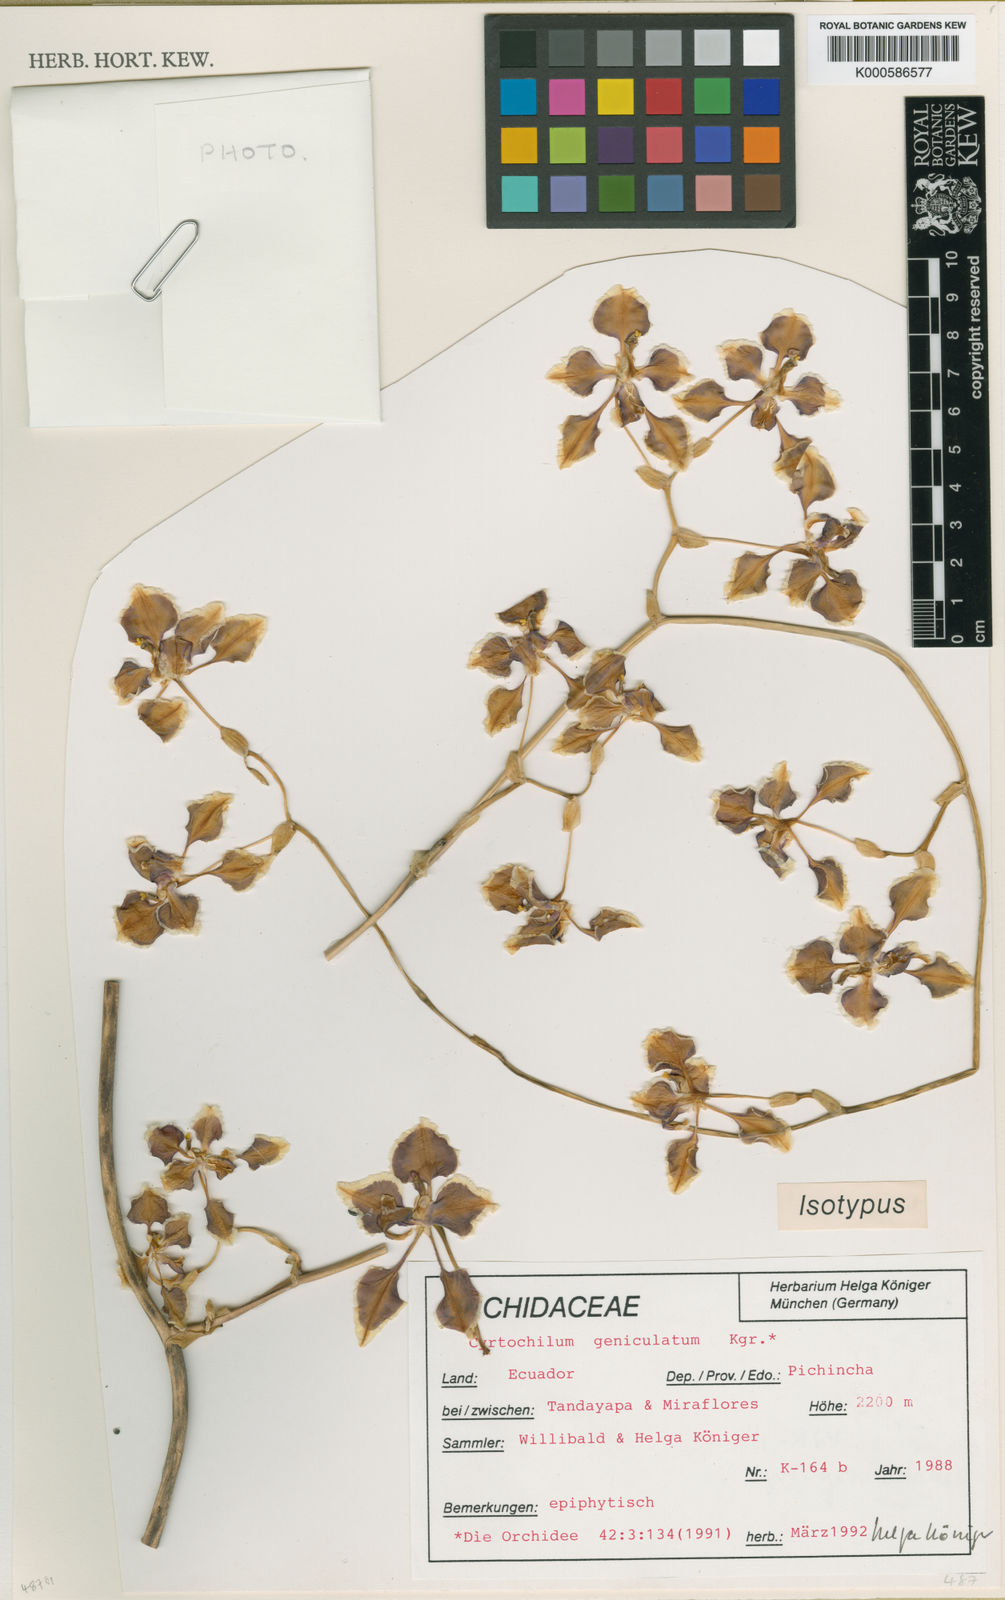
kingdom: Plantae
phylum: Tracheophyta
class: Liliopsida
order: Asparagales
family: Orchidaceae
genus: Oncidium
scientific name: Oncidium
